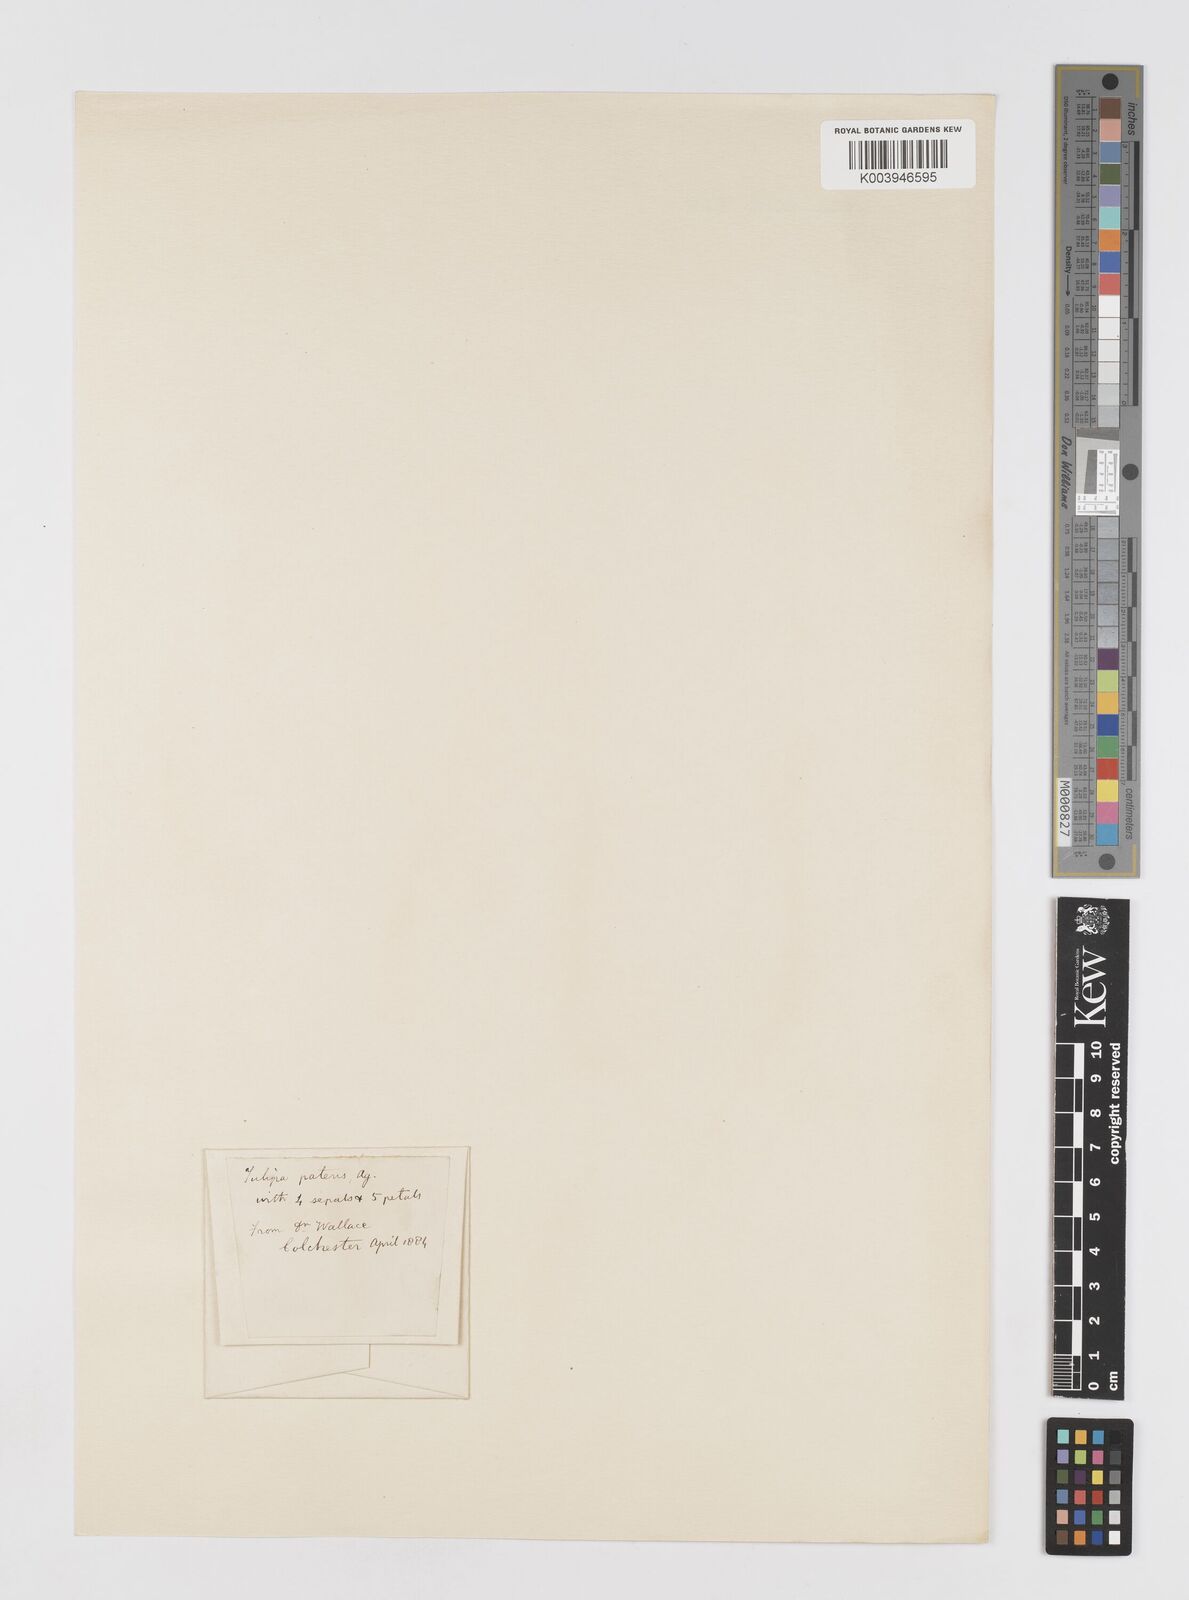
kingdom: Plantae
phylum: Tracheophyta
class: Liliopsida
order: Liliales
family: Liliaceae
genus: Tulipa
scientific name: Tulipa sylvestris
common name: Wild tulip
